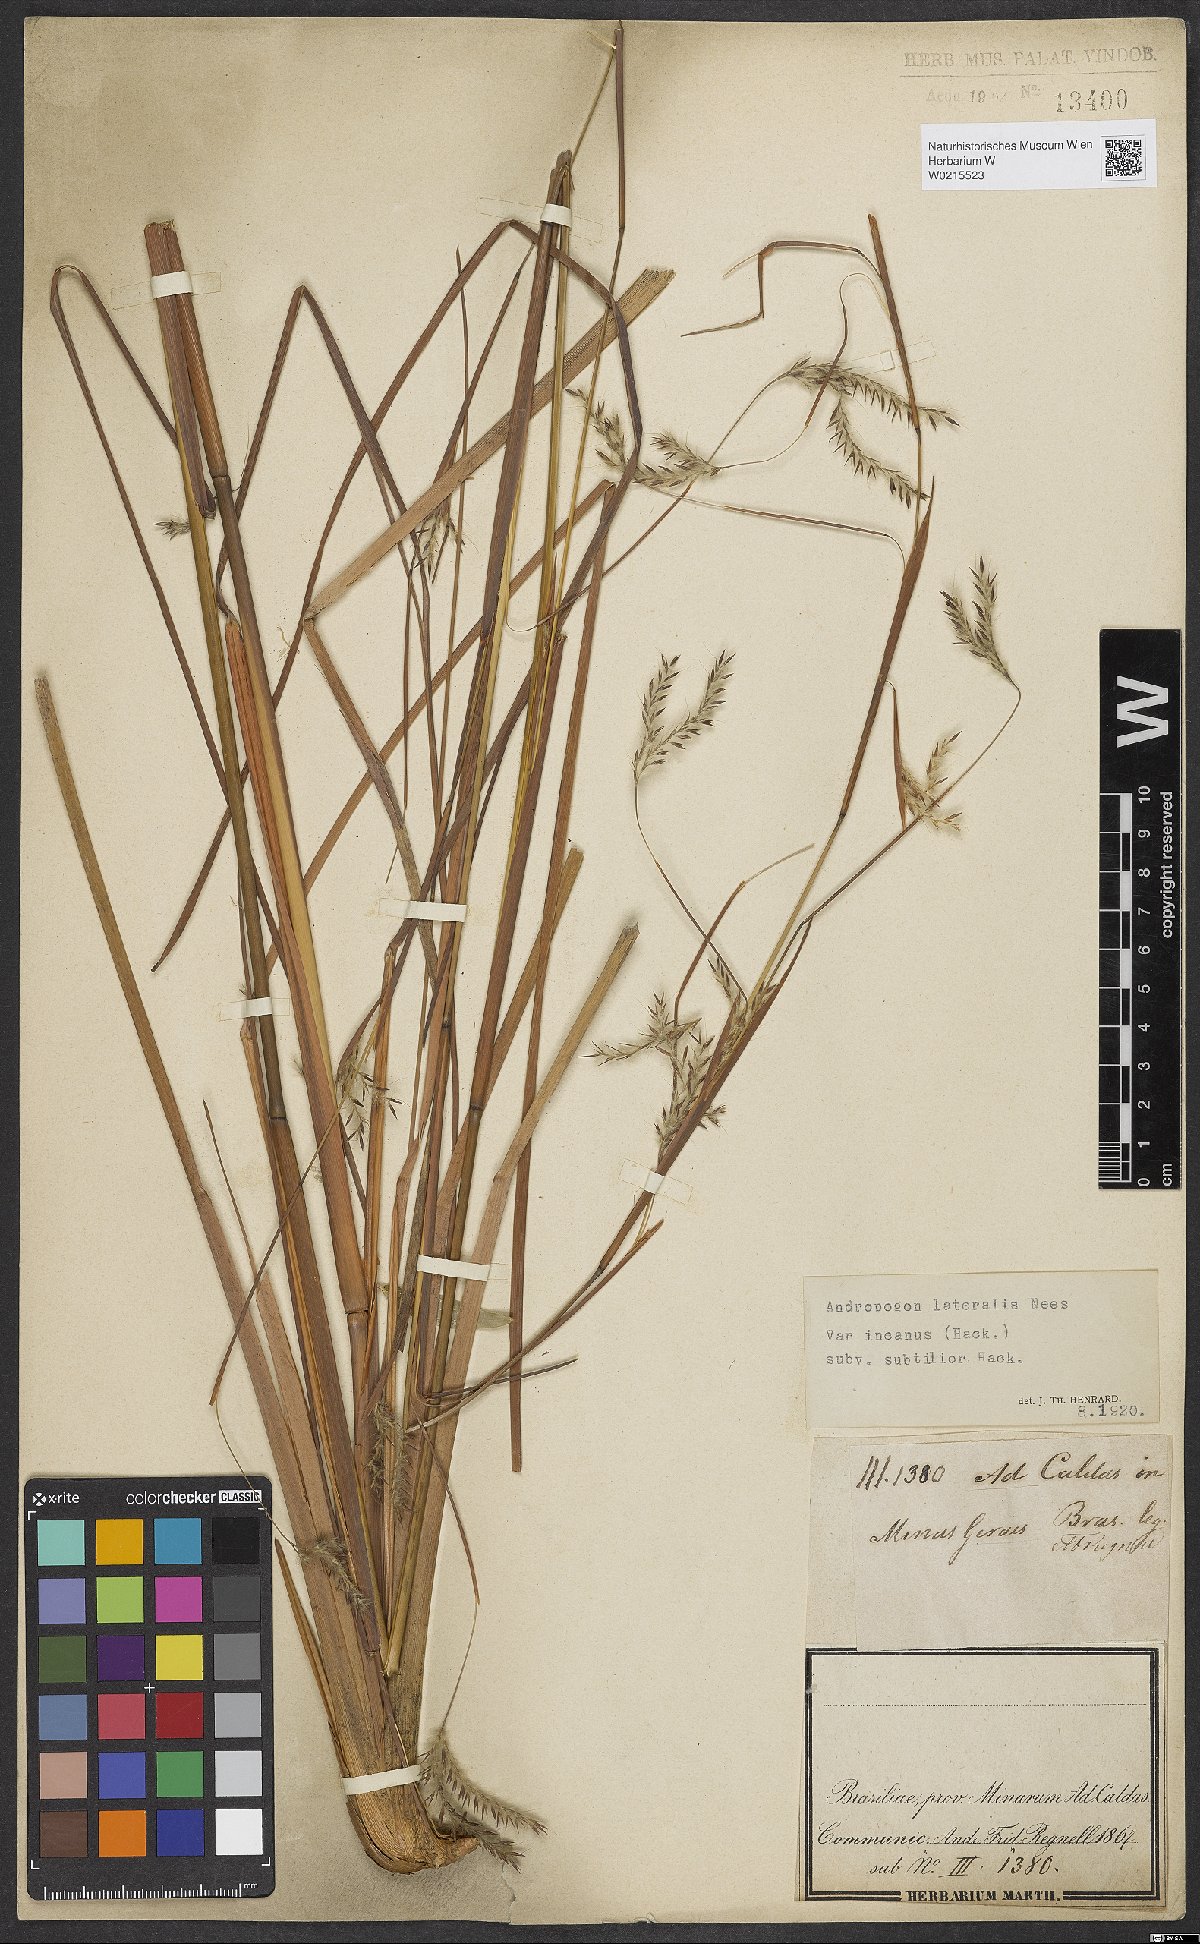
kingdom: Plantae
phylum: Tracheophyta
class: Liliopsida
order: Poales
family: Poaceae
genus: Andropogon
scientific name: Andropogon glaucescens
